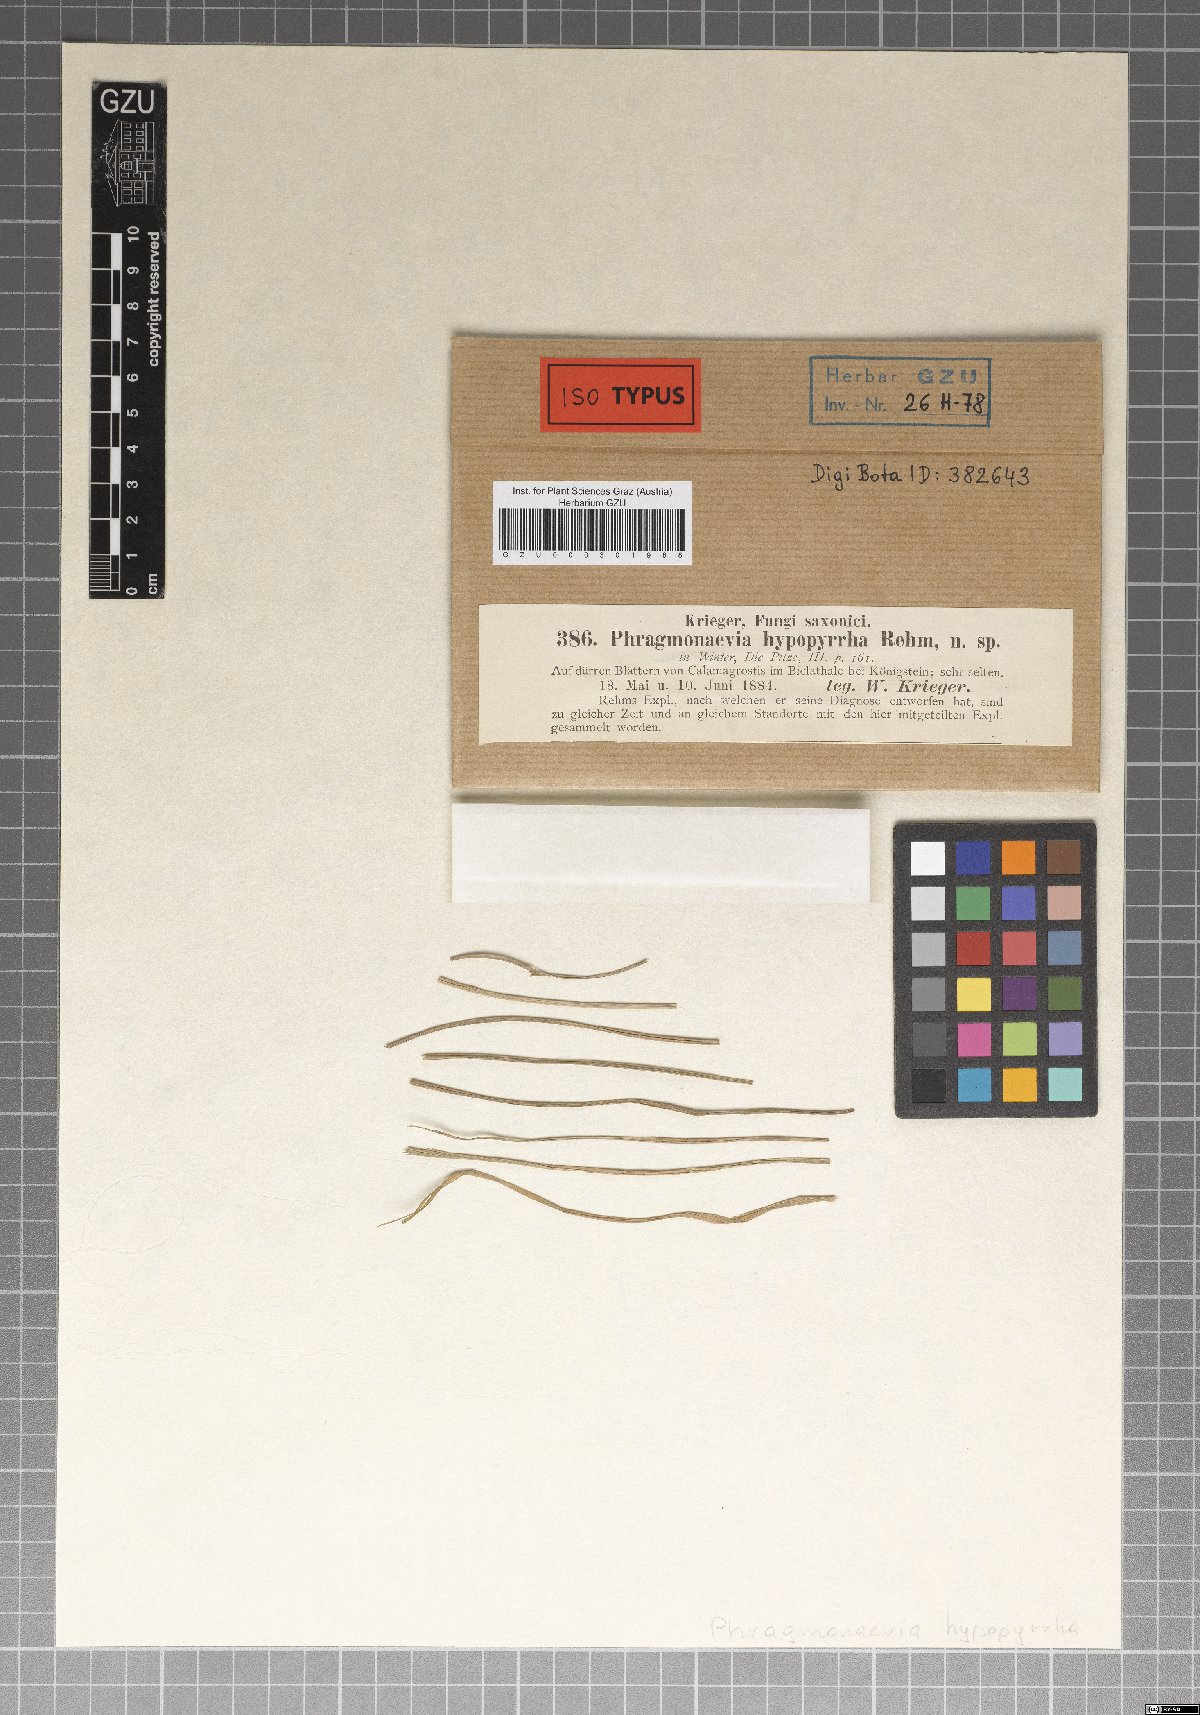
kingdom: Fungi
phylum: Ascomycota
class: Leotiomycetes
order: Helotiales
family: Calloriaceae
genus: Merostictis
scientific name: Merostictis hypopyrrha
